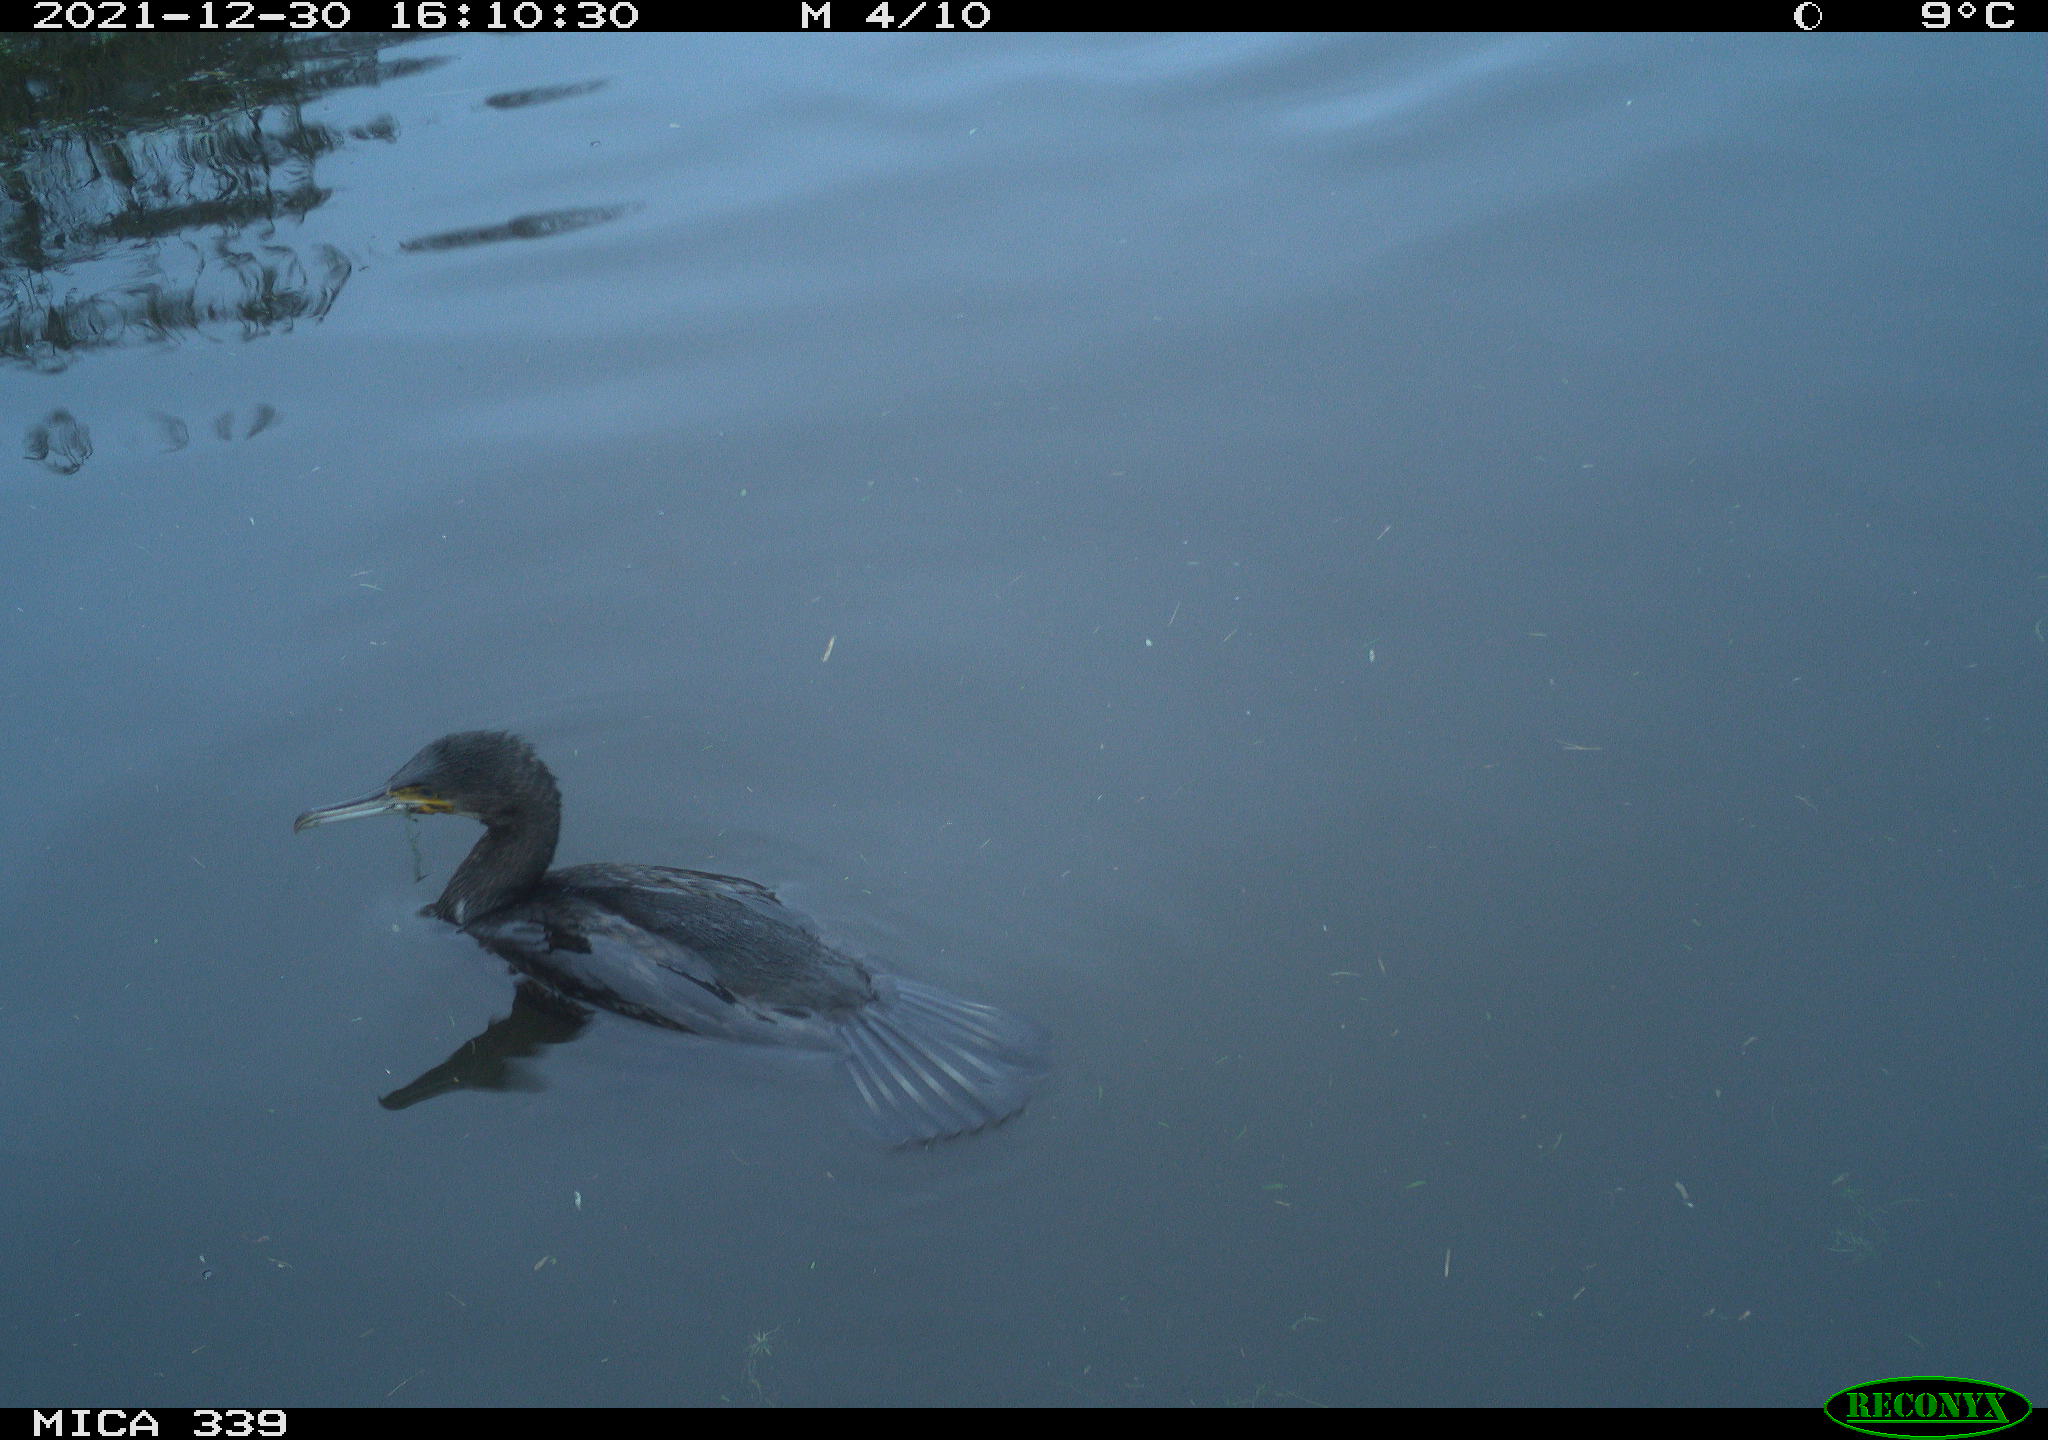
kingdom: Animalia
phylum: Chordata
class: Aves
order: Suliformes
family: Phalacrocoracidae
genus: Phalacrocorax
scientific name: Phalacrocorax carbo
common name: Great cormorant
